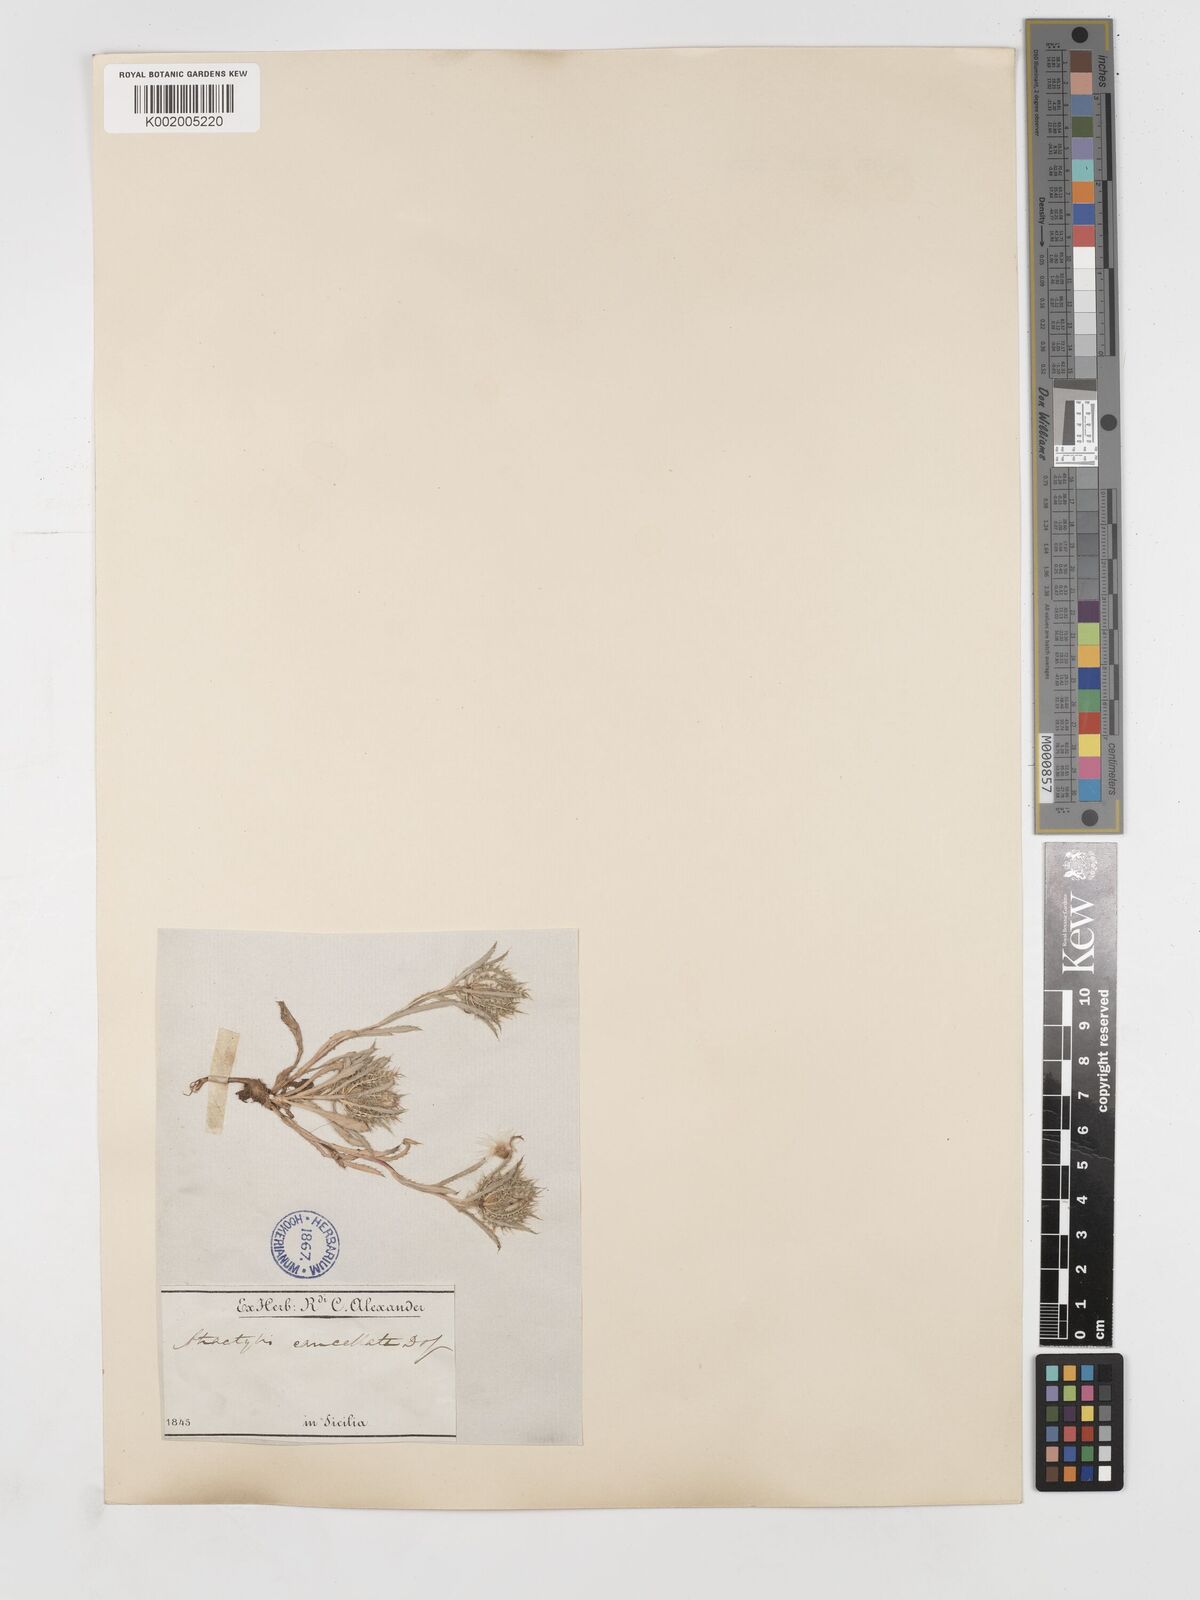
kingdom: Plantae
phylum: Tracheophyta
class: Magnoliopsida
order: Asterales
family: Asteraceae
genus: Atractylis
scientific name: Atractylis cancellata
